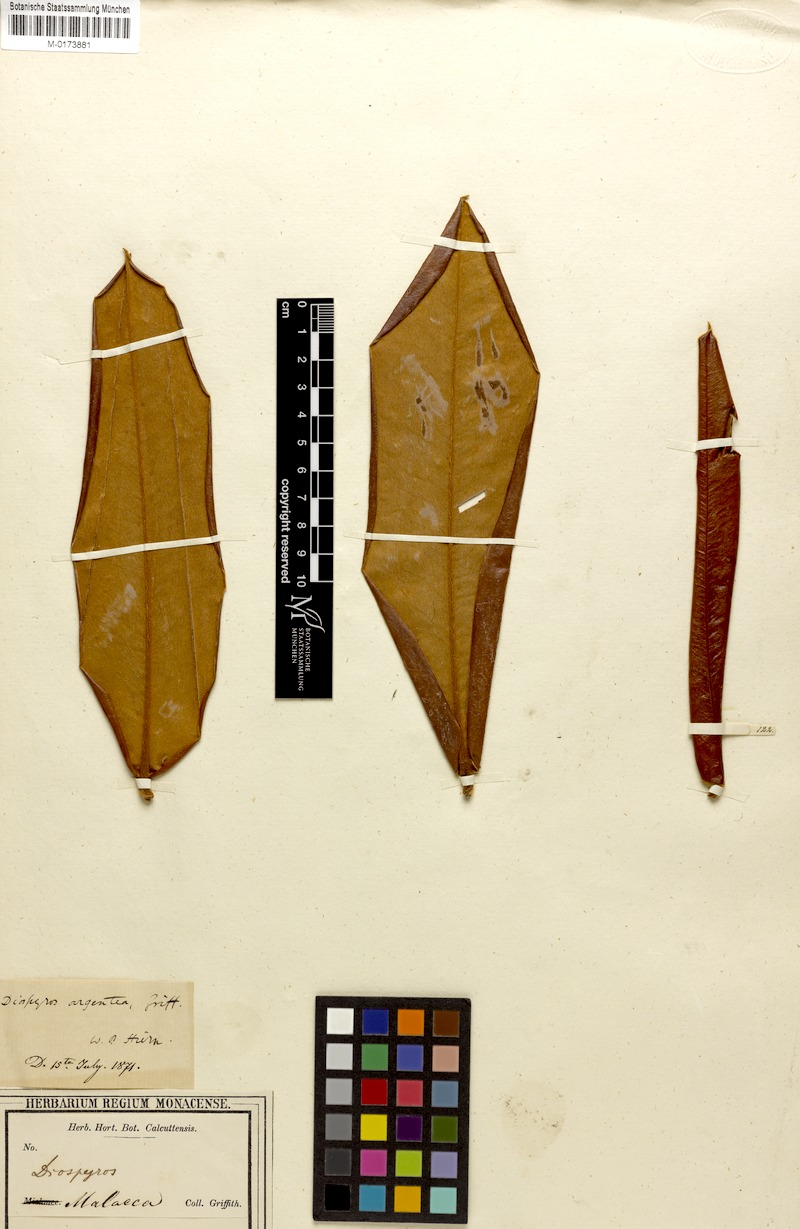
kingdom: Plantae
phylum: Tracheophyta
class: Magnoliopsida
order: Ericales
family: Ebenaceae
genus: Diospyros
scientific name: Diospyros argentea
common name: Silver-leaved ebony
